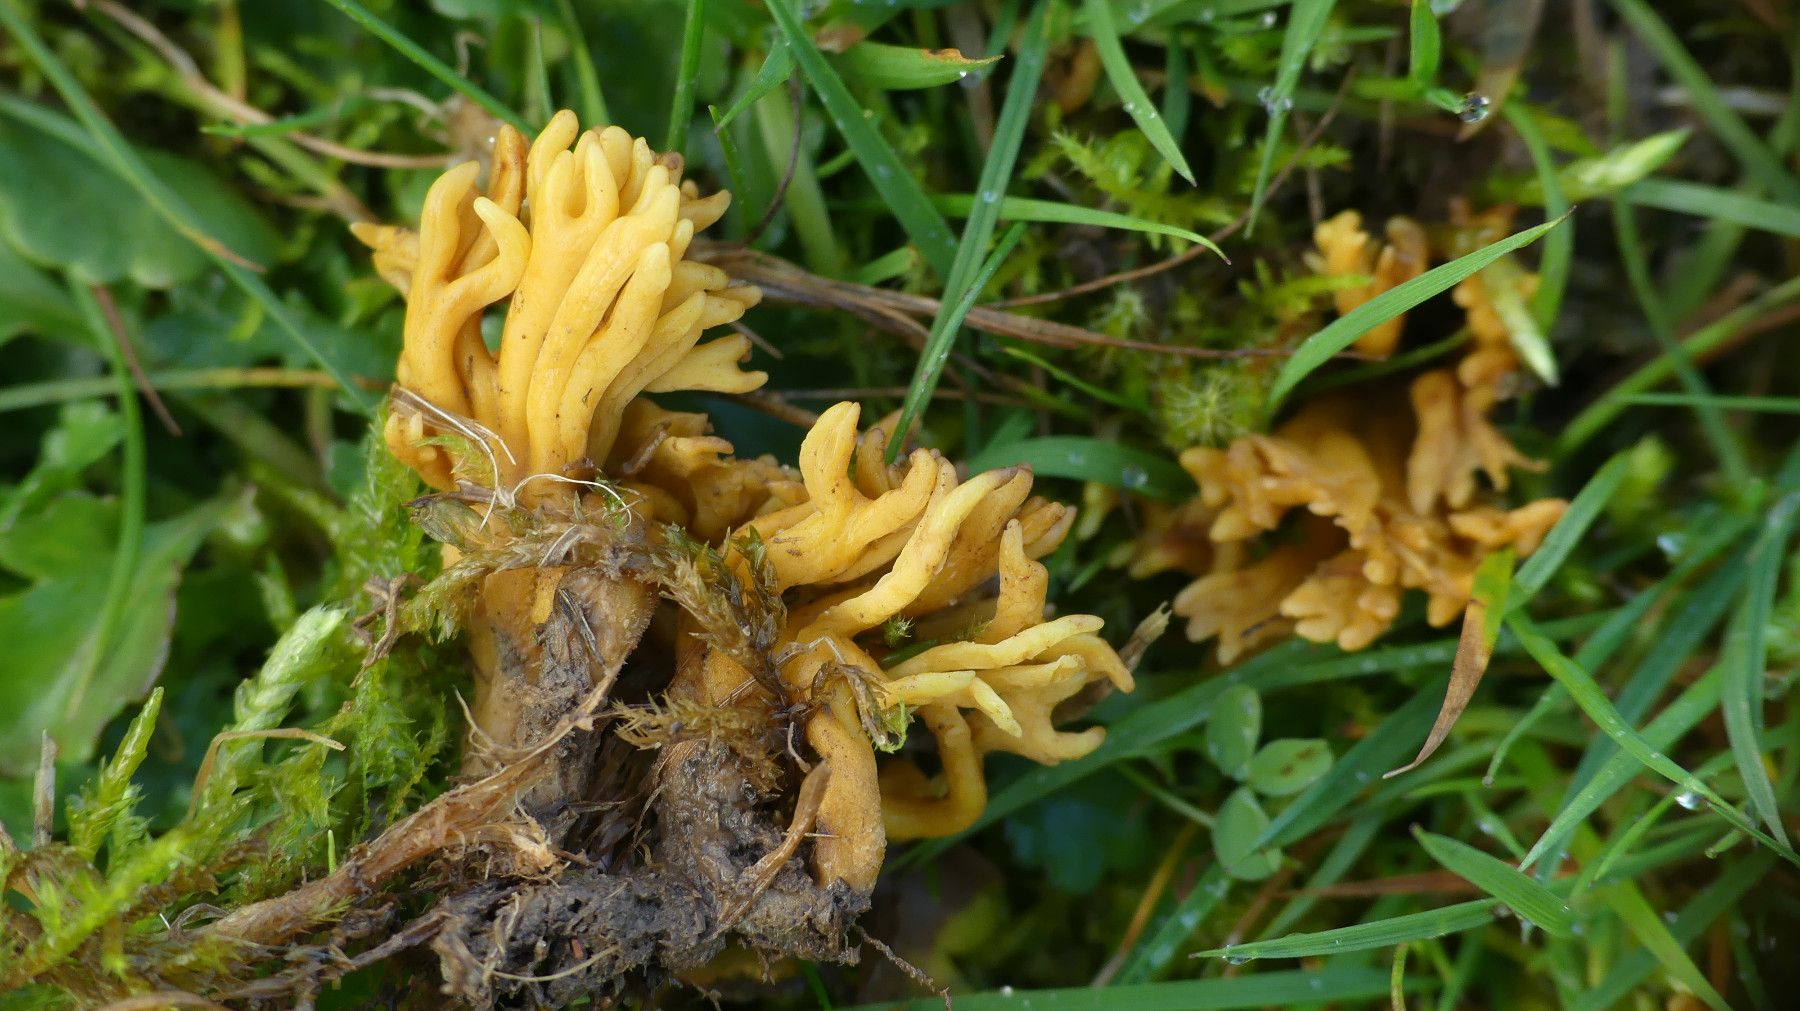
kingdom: Fungi
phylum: Basidiomycota
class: Agaricomycetes
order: Agaricales
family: Clavariaceae
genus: Clavulinopsis
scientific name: Clavulinopsis corniculata
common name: eng-køllesvamp
